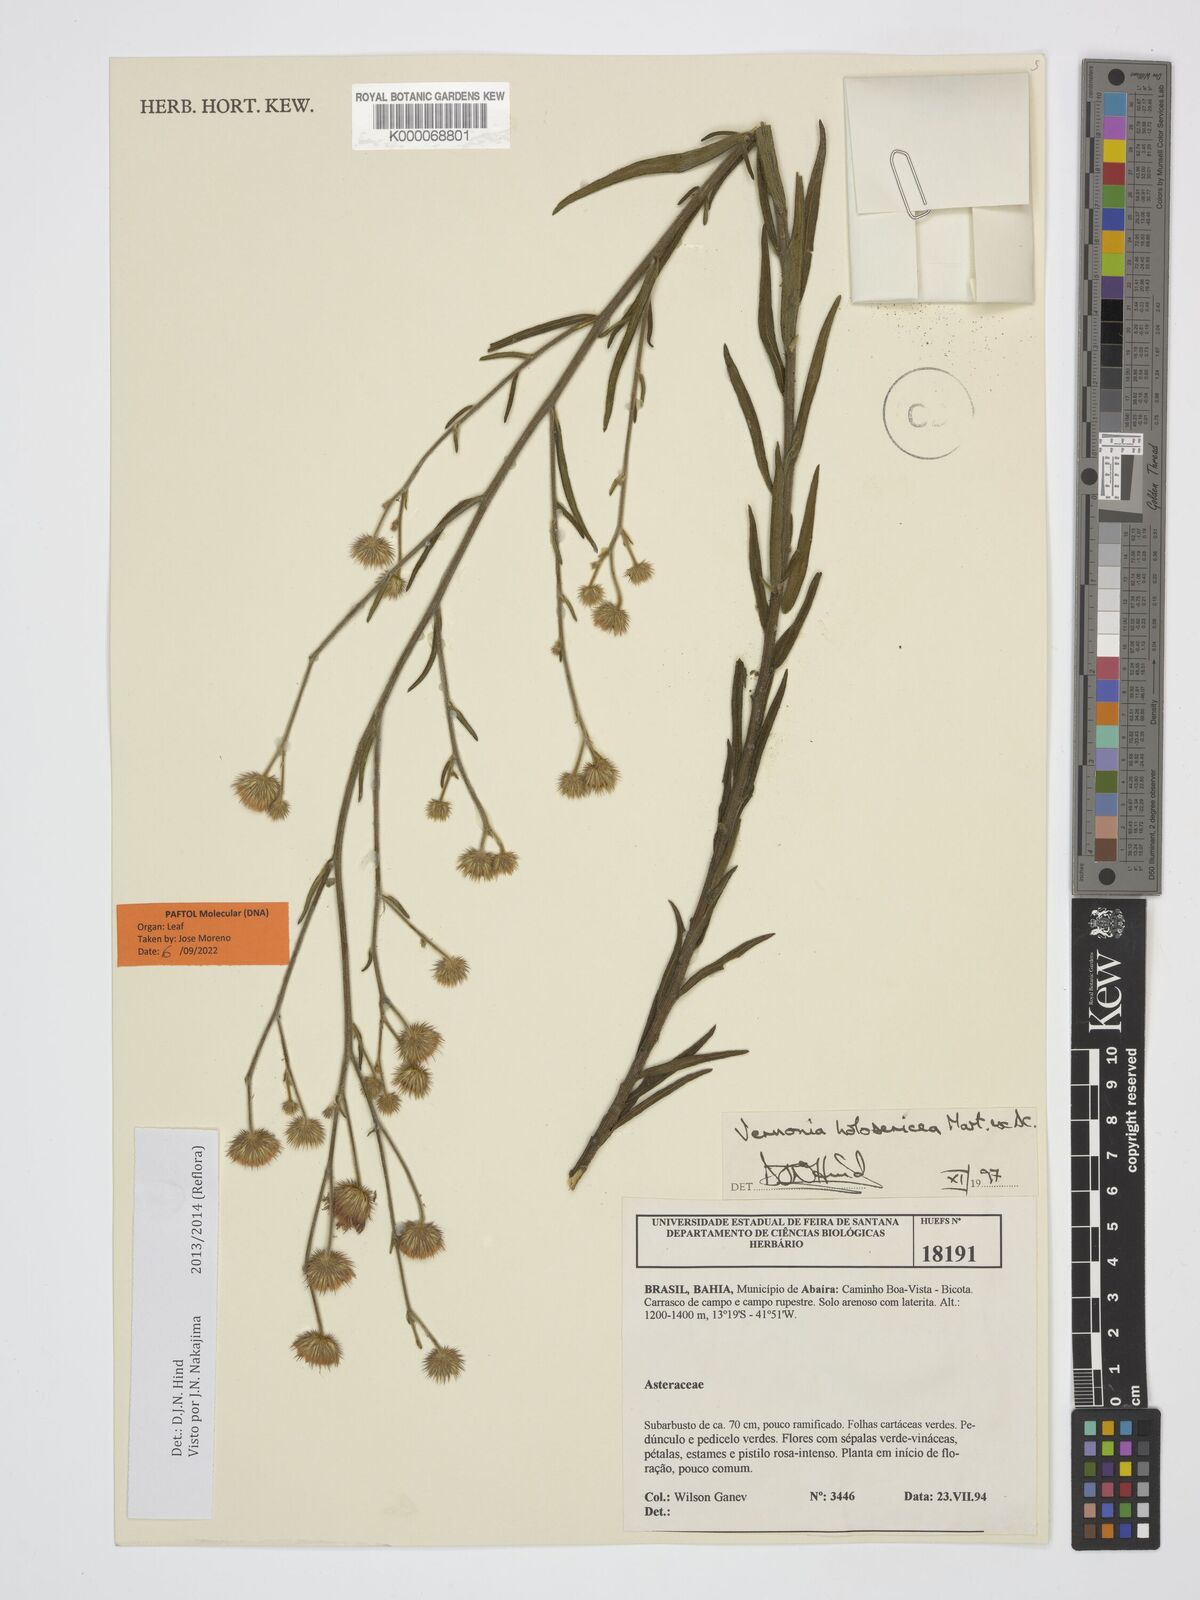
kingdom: Plantae
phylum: Tracheophyta
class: Magnoliopsida
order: Asterales
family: Asteraceae
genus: Echinocoryne
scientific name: Echinocoryne holosericea
